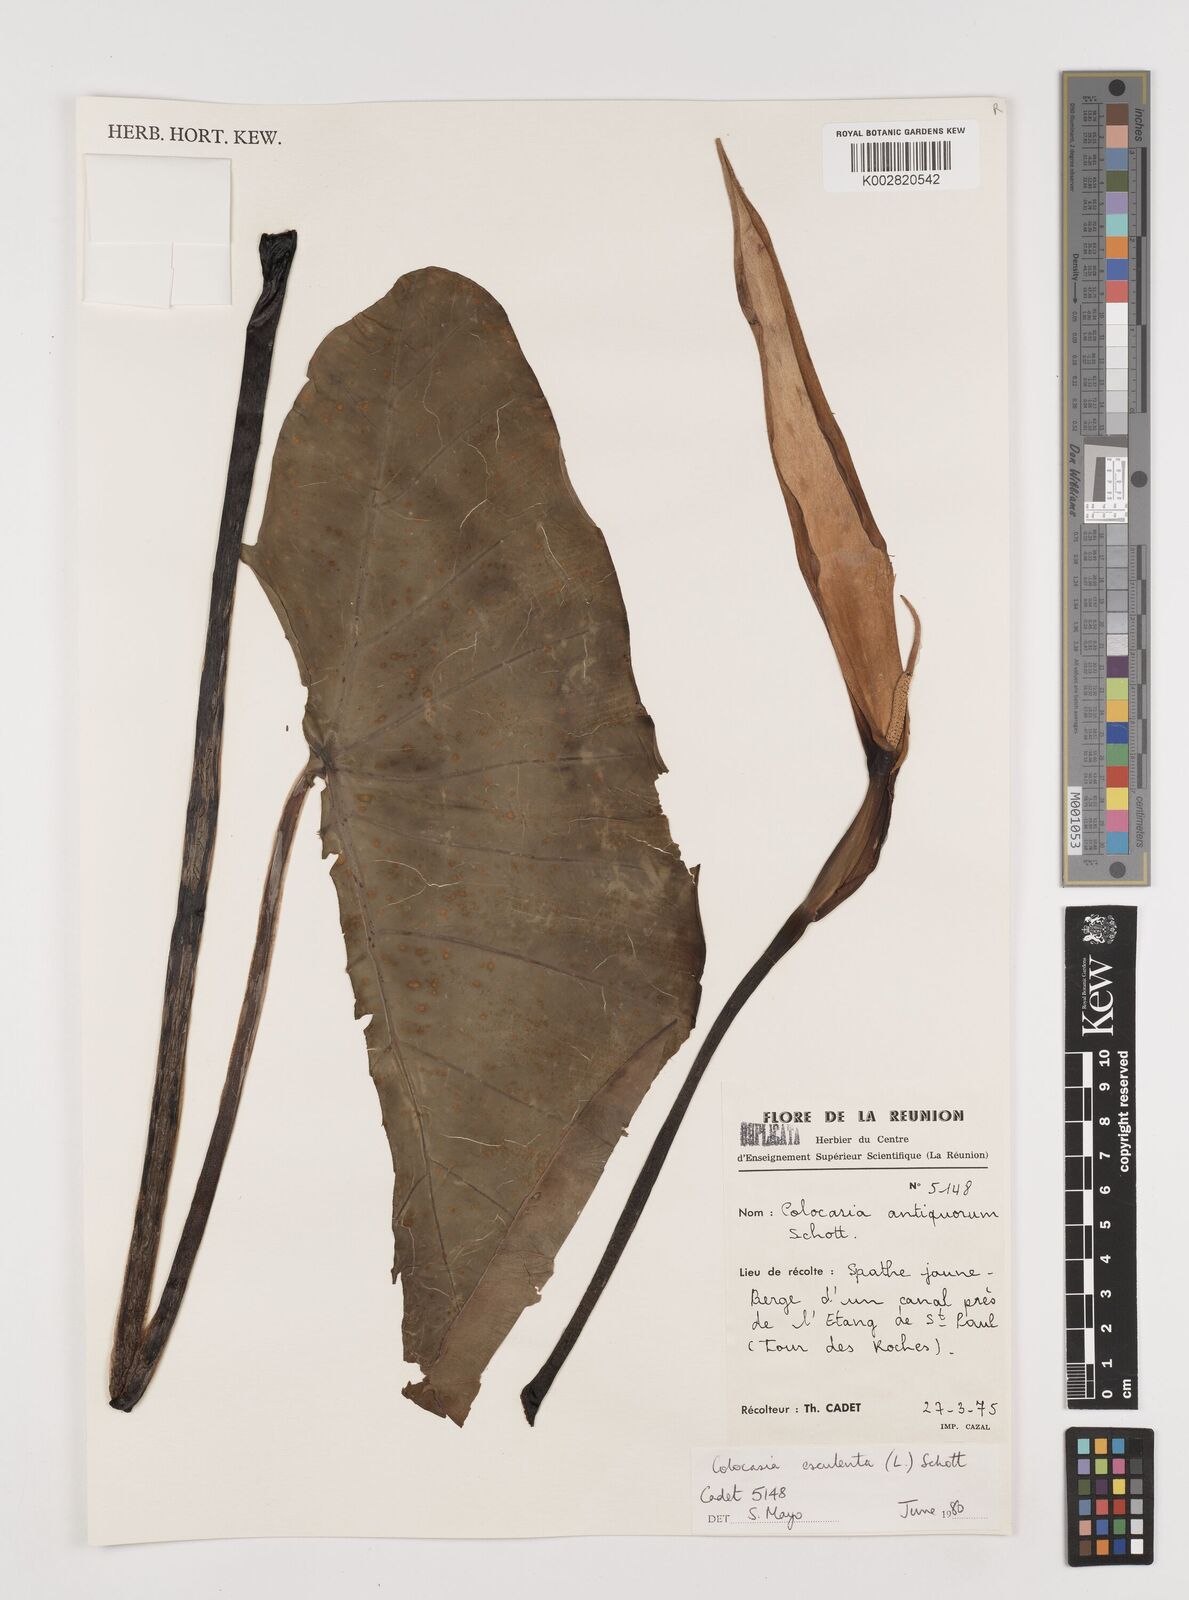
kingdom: Plantae
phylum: Tracheophyta
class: Liliopsida
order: Alismatales
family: Araceae
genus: Colocasia
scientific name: Colocasia esculenta
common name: Taro
